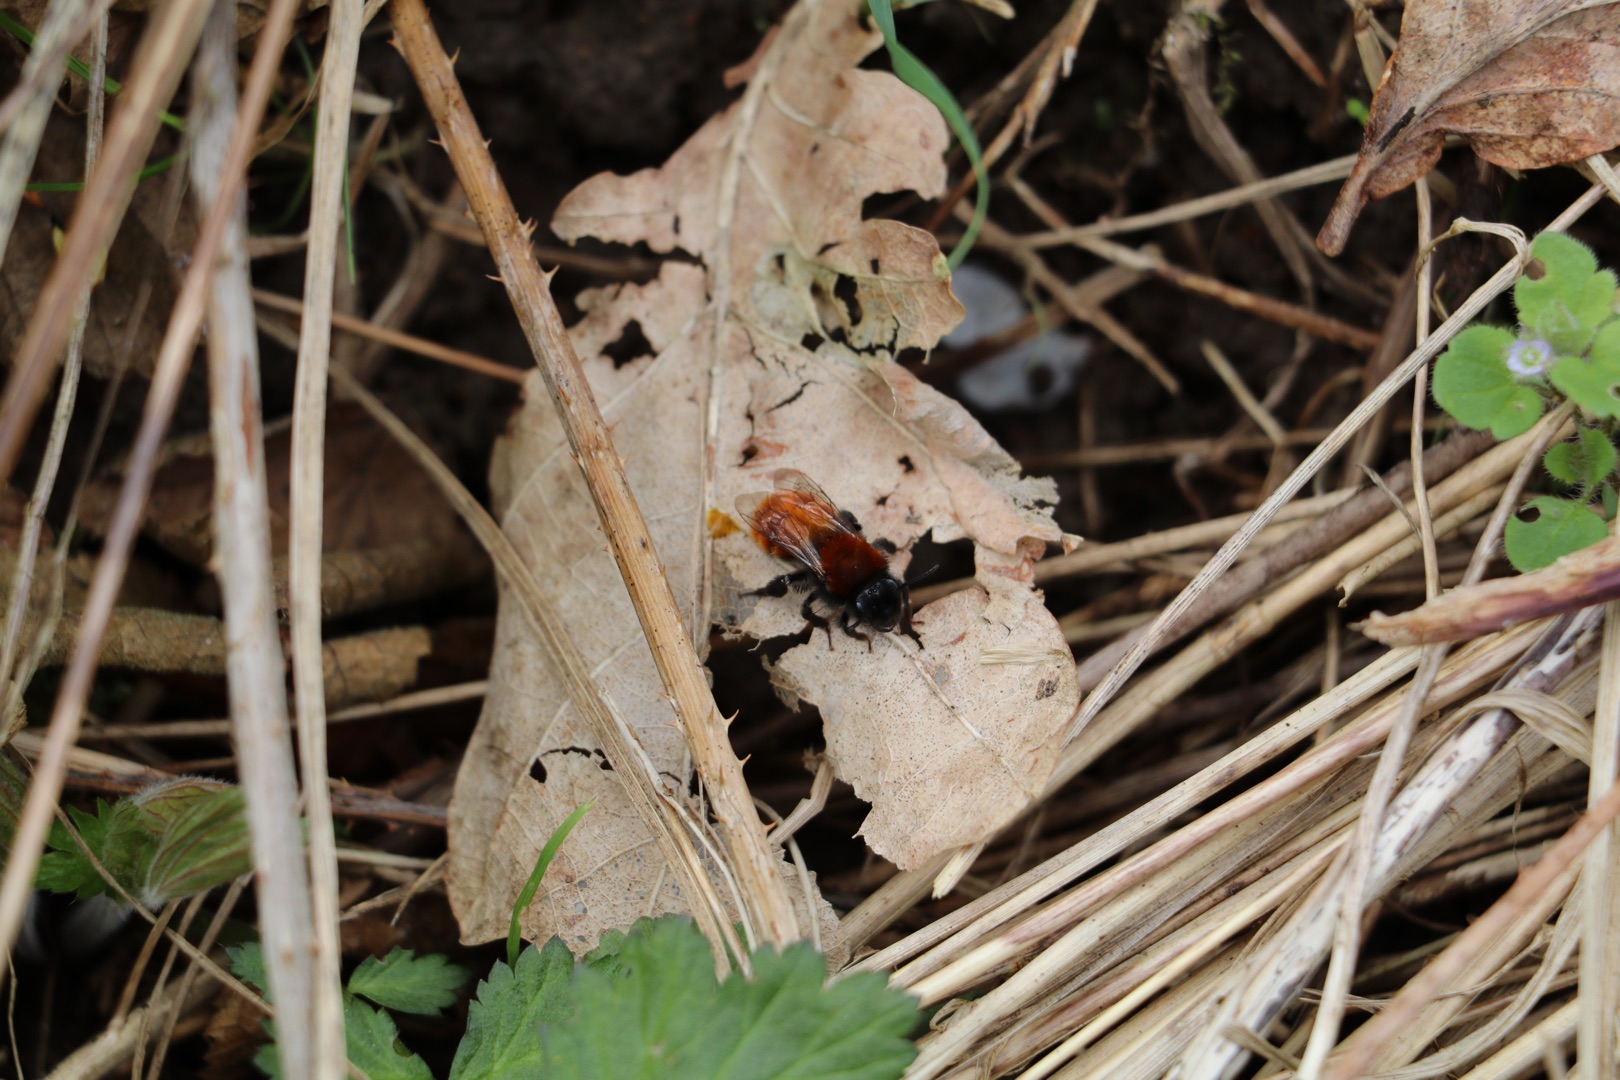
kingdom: Animalia
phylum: Arthropoda
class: Insecta
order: Hymenoptera
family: Andrenidae
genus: Andrena
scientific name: Andrena fulva
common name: Rødpelset jordbi
